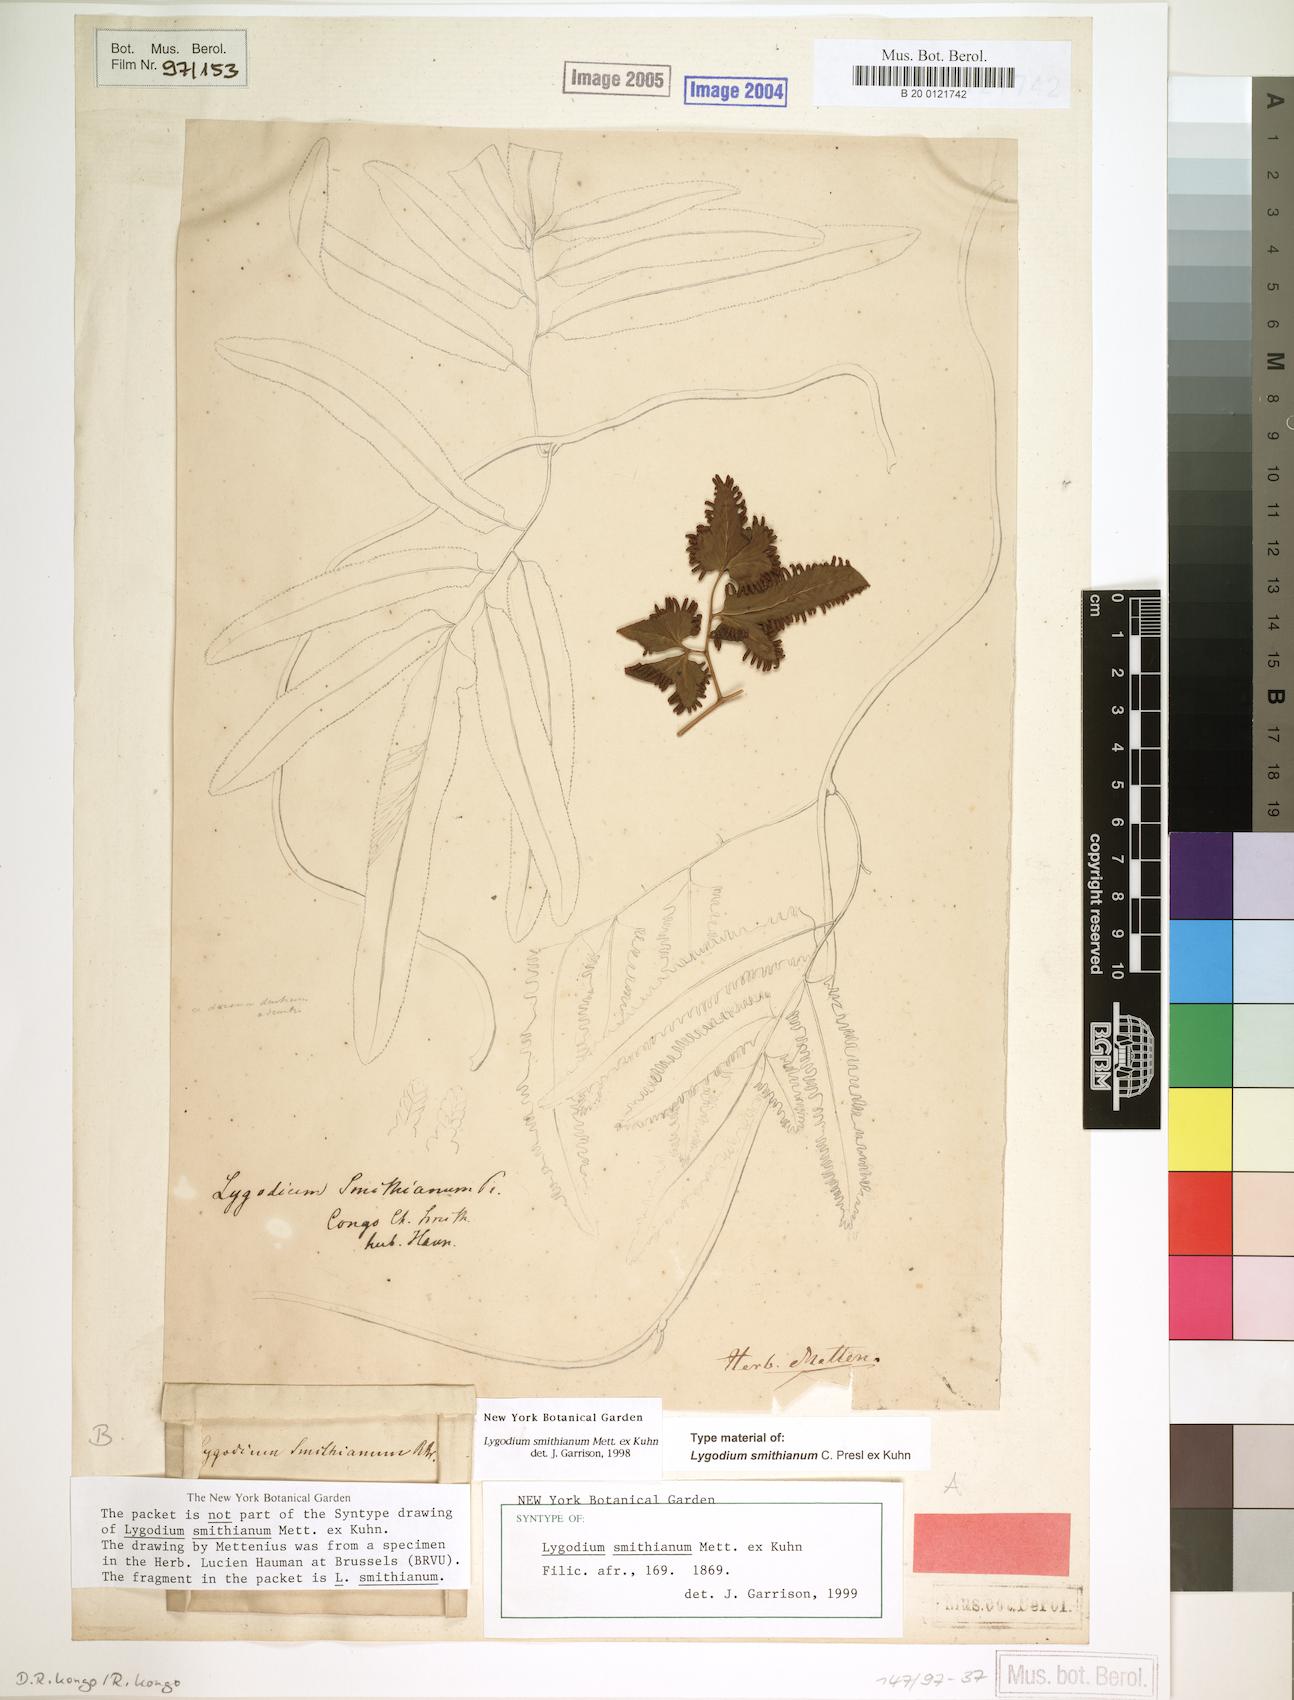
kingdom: Plantae
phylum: Tracheophyta
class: Polypodiopsida
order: Schizaeales
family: Lygodiaceae
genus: Lygodium
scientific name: Lygodium smithianum
